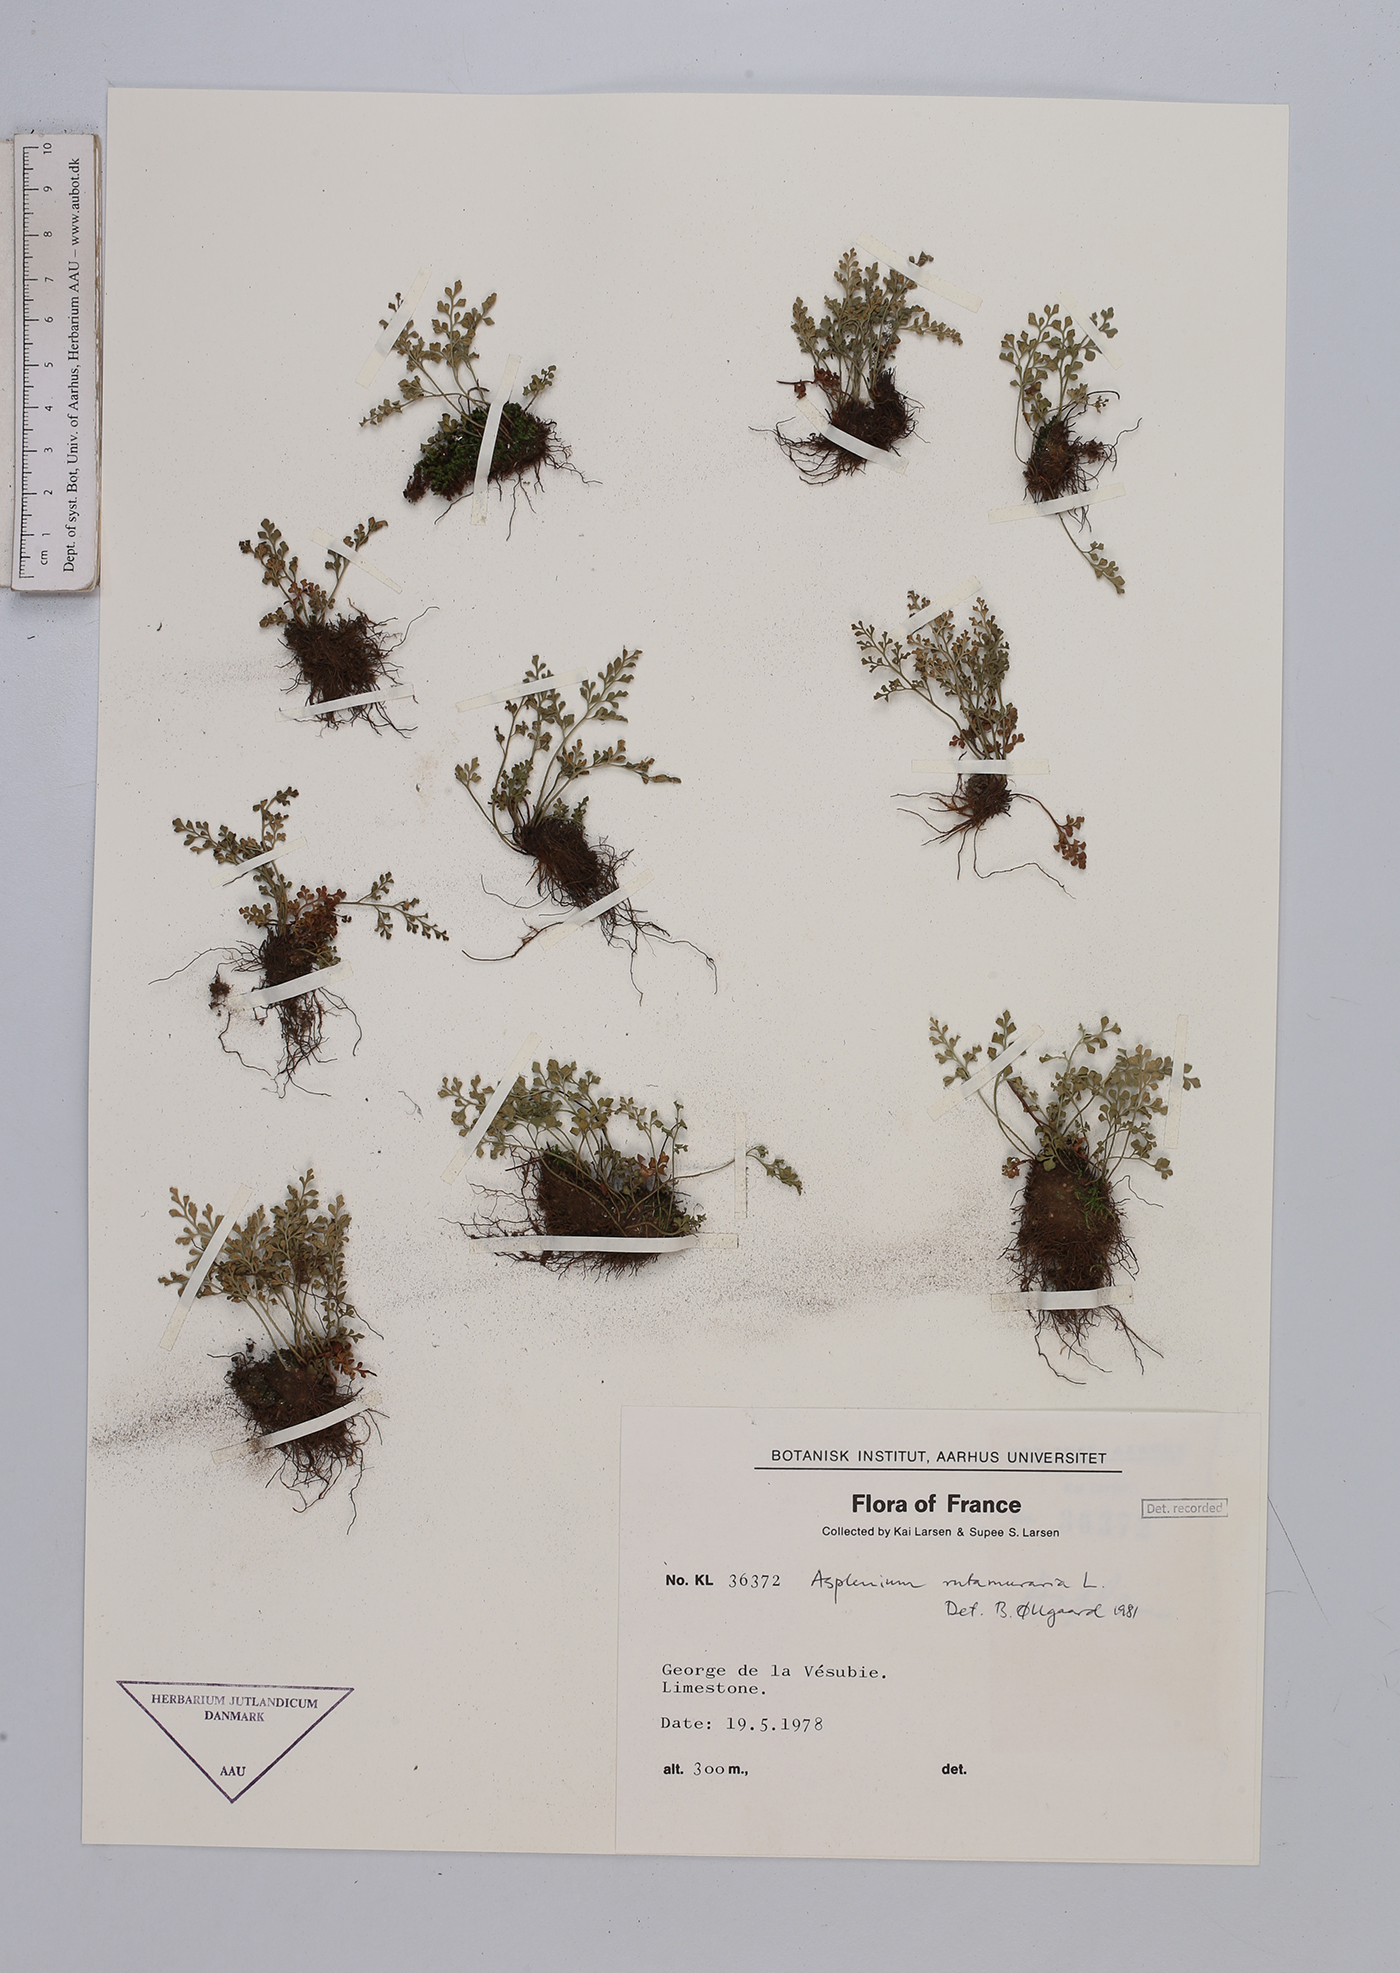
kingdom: Plantae
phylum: Tracheophyta
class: Polypodiopsida
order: Polypodiales
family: Aspleniaceae
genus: Asplenium
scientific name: Asplenium ruta-muraria
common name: Wall-rue
